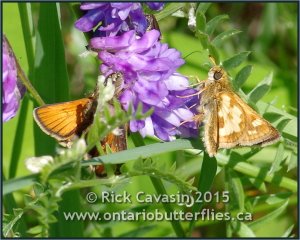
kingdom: Animalia
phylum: Arthropoda
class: Insecta
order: Lepidoptera
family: Hesperiidae
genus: Polites
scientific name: Polites coras
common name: Peck's Skipper
